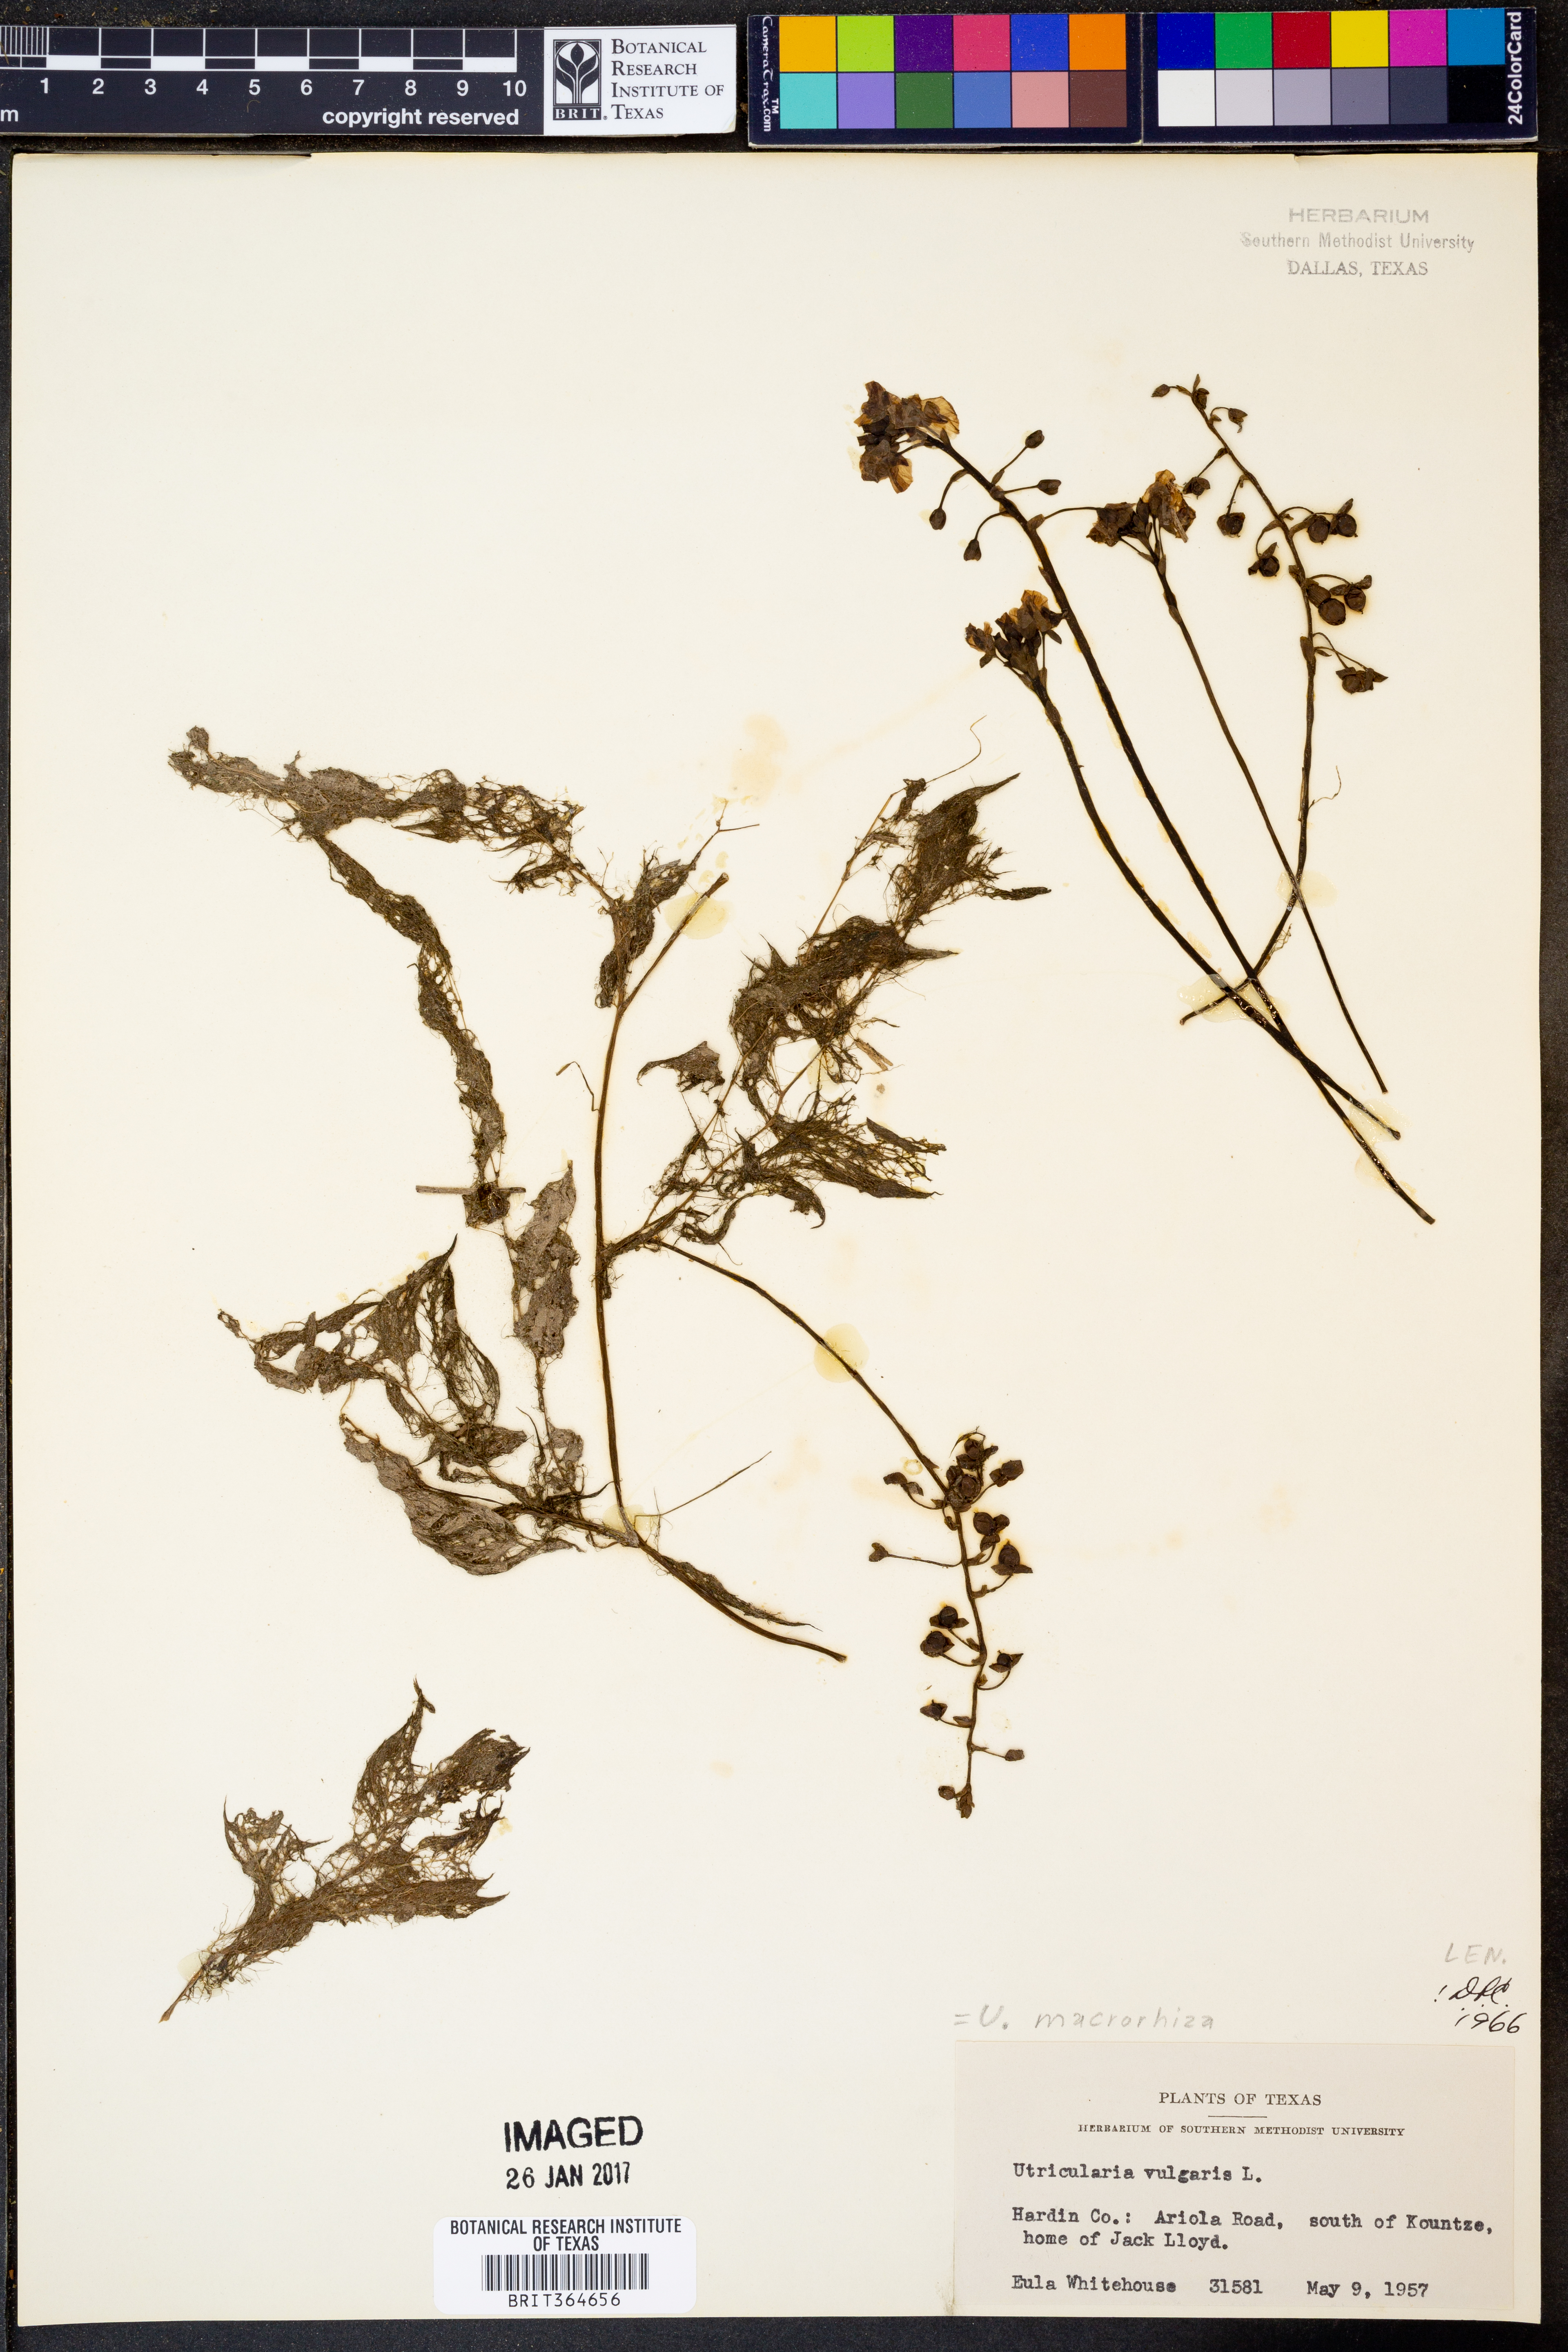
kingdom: Plantae
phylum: Tracheophyta
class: Magnoliopsida
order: Lamiales
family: Lentibulariaceae
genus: Utricularia
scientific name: Utricularia macrorhiza
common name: Common bladderwort
